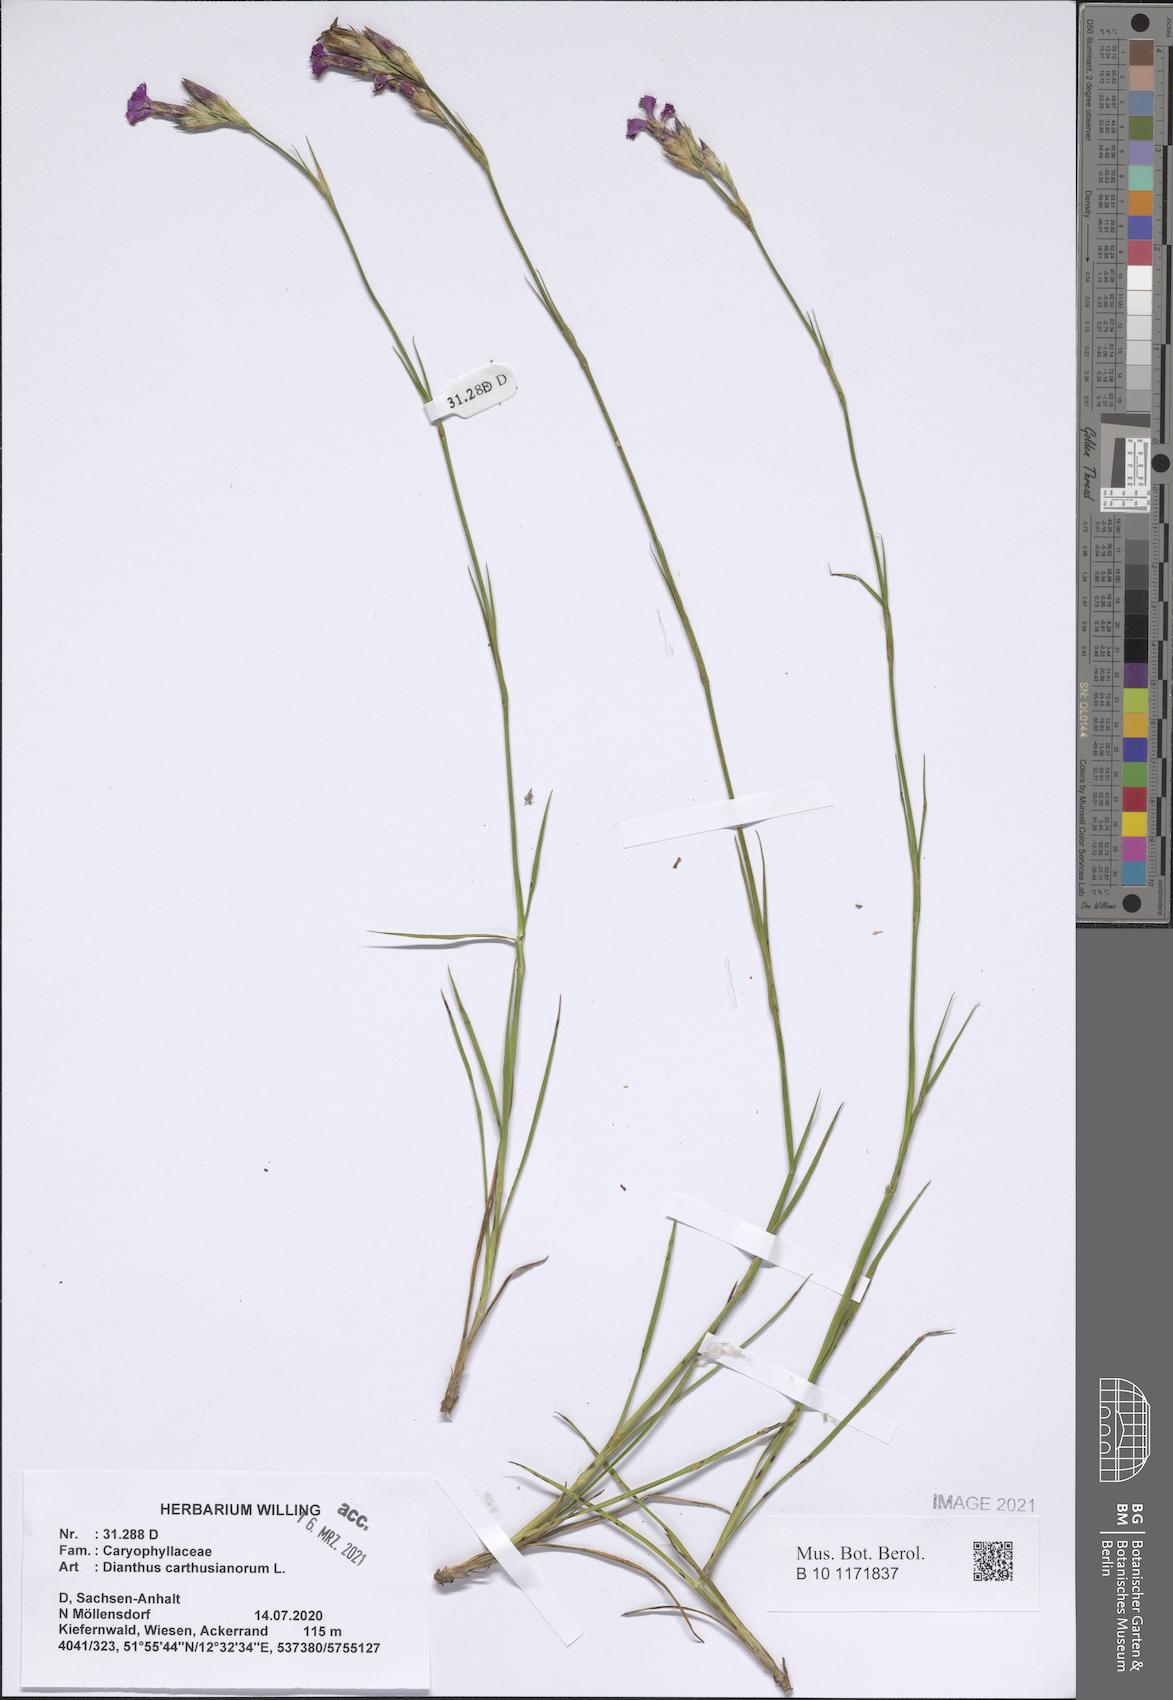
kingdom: Plantae
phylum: Tracheophyta
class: Magnoliopsida
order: Caryophyllales
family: Caryophyllaceae
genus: Dianthus
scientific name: Dianthus carthusianorum
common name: Carthusian pink
